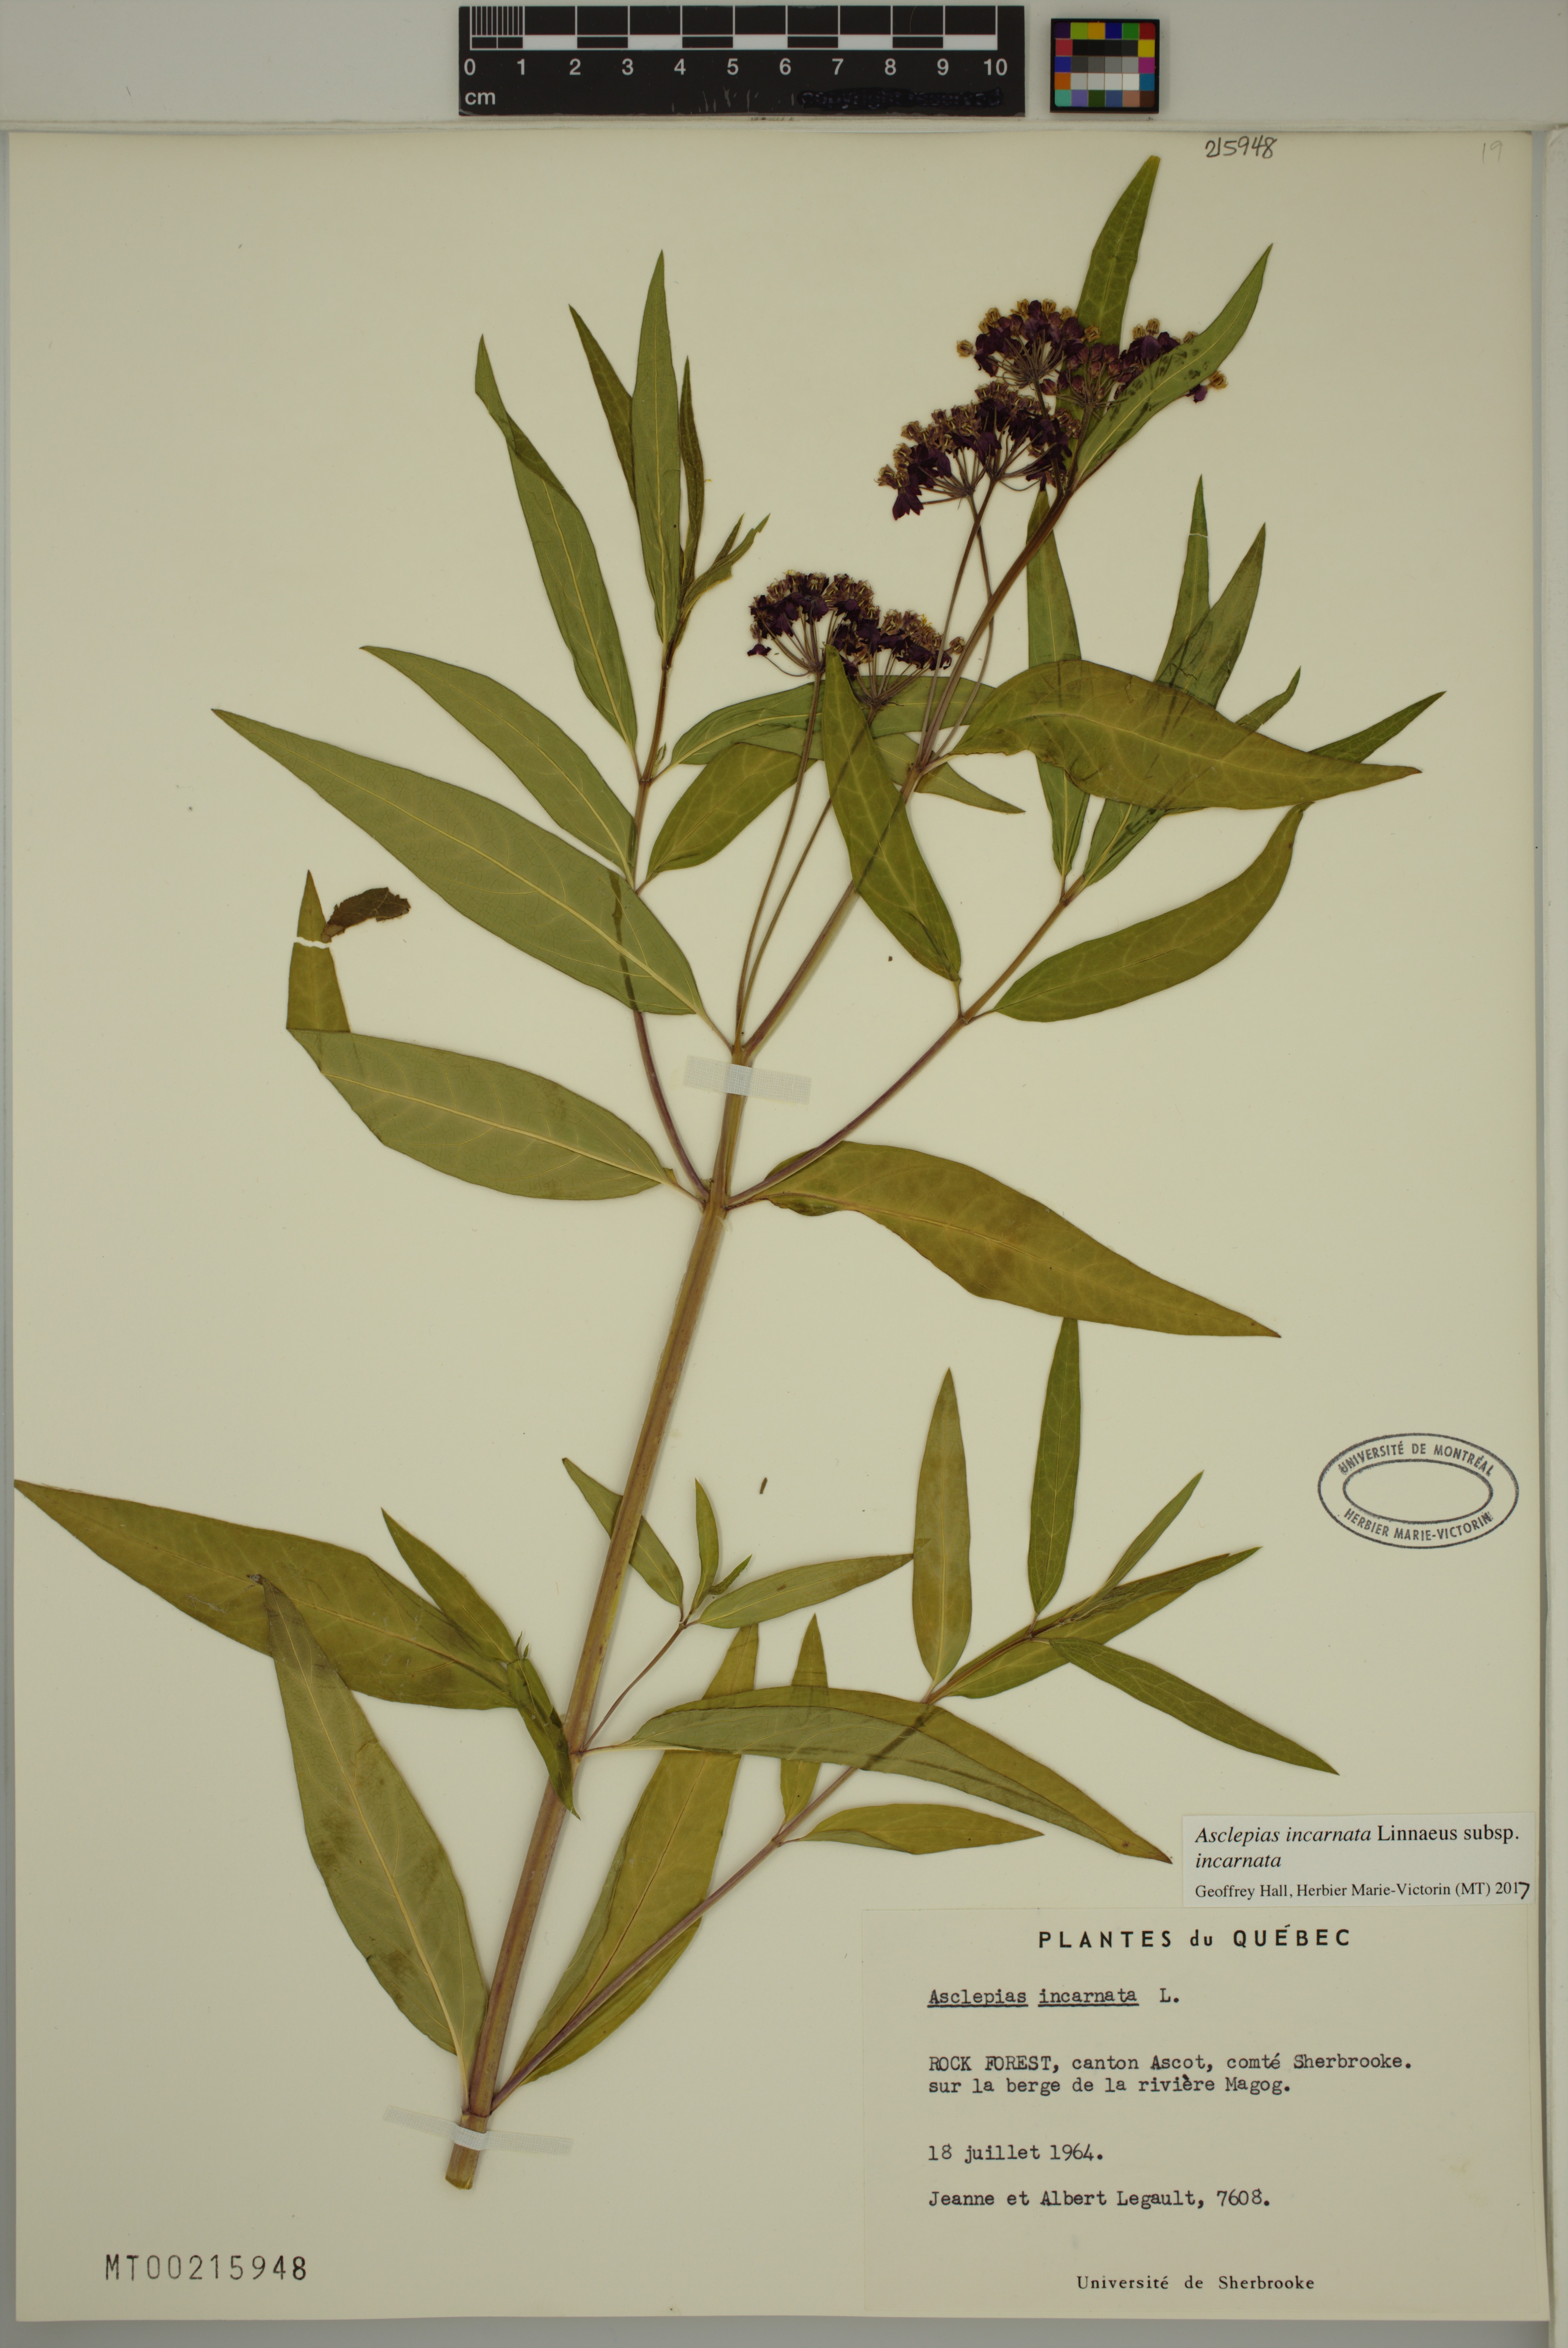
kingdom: Plantae
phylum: Tracheophyta
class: Magnoliopsida
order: Gentianales
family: Apocynaceae
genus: Asclepias
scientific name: Asclepias incarnata
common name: Swamp milkweed
